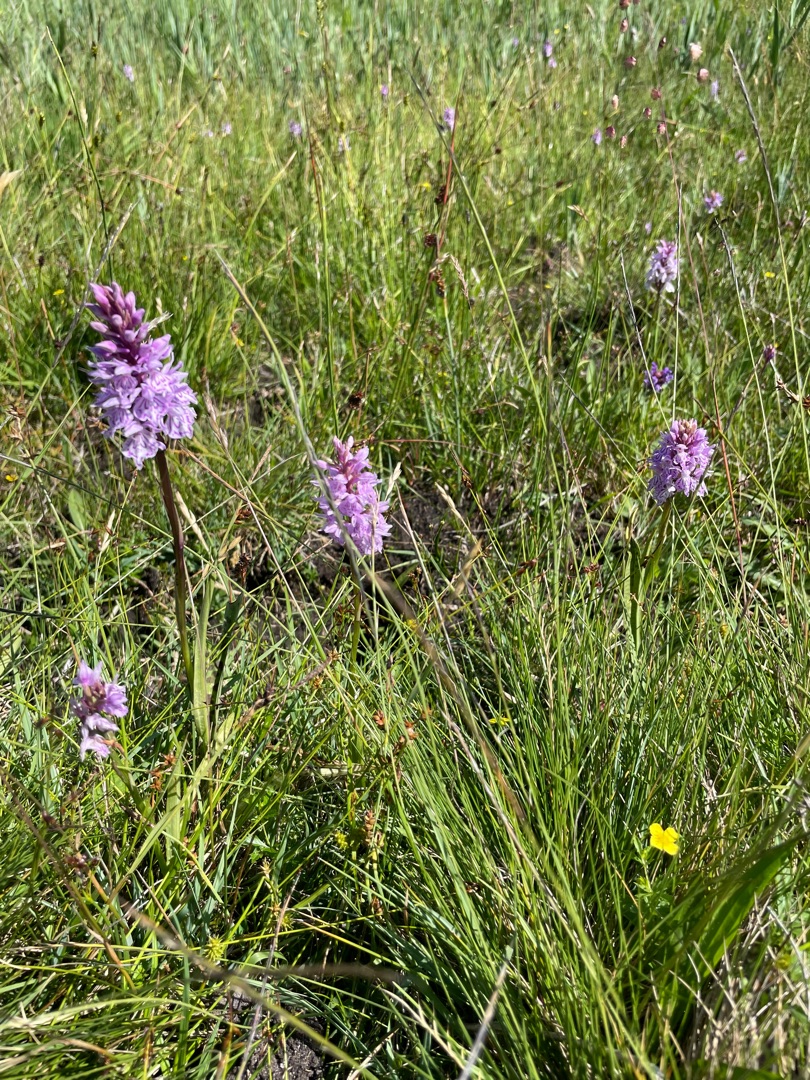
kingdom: Plantae
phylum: Tracheophyta
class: Liliopsida
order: Asparagales
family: Orchidaceae
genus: Dactylorhiza
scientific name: Dactylorhiza maculata
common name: Plettet gøgeurt (underart)
